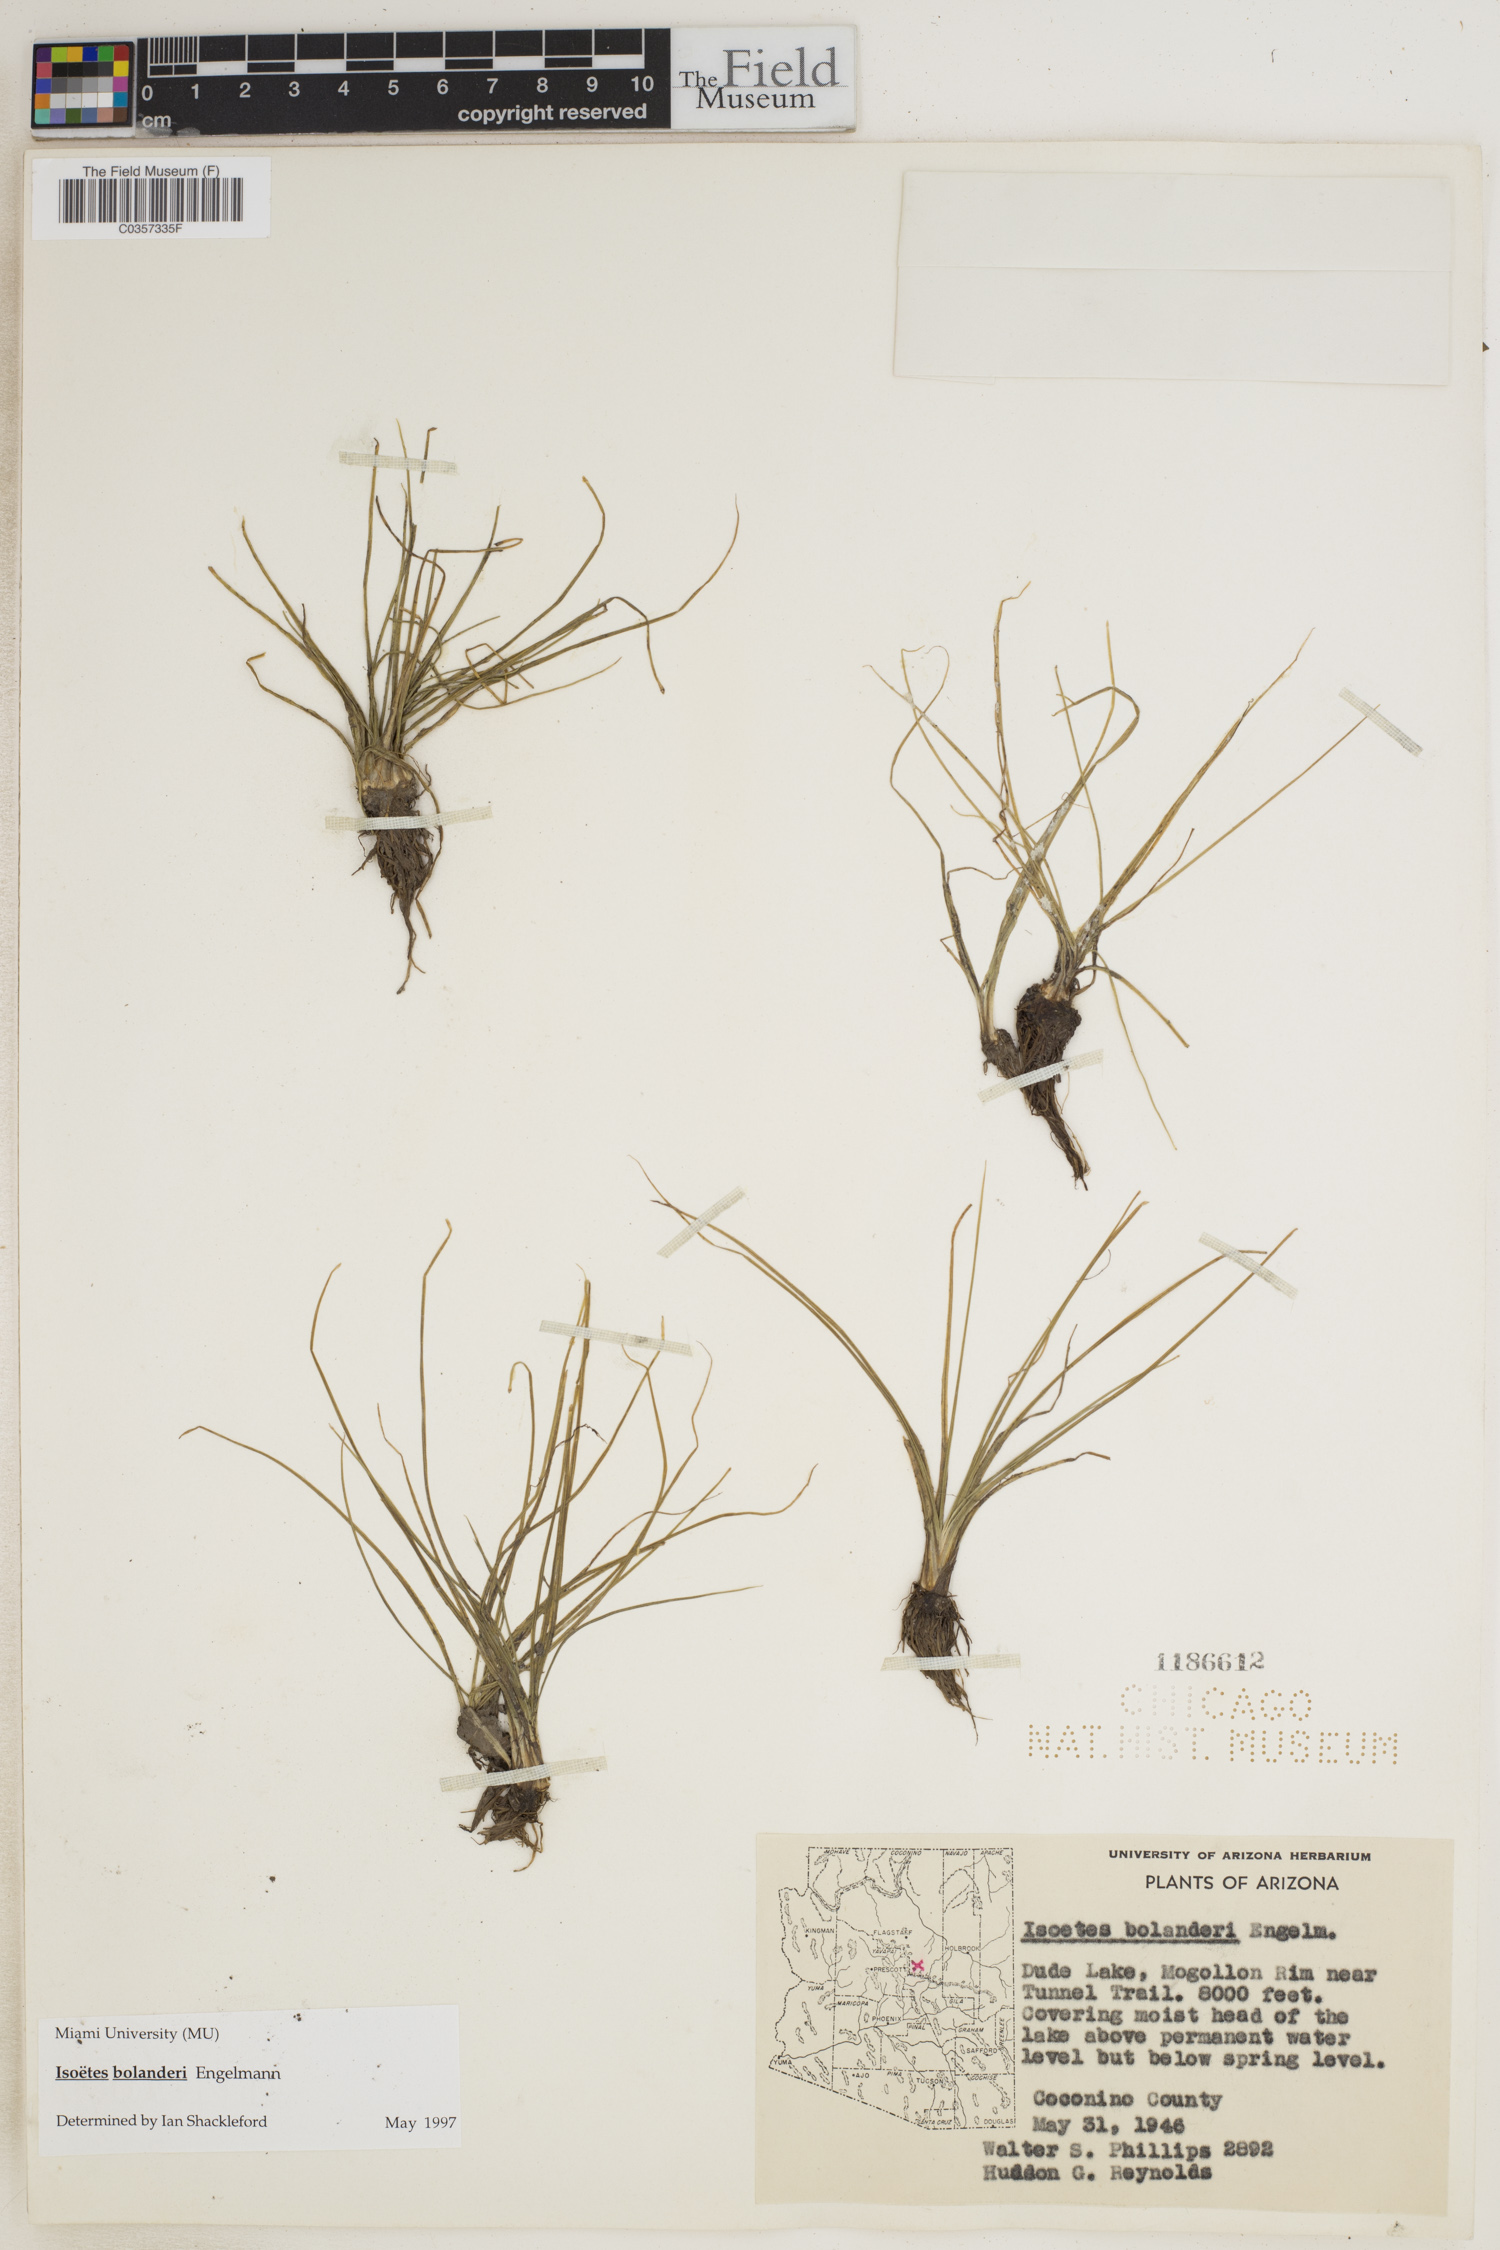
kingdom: Plantae
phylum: Tracheophyta
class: Lycopodiopsida
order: Isoetales
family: Isoetaceae
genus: Isoetes
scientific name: Isoetes bolanderi
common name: Bolander's quillwort
